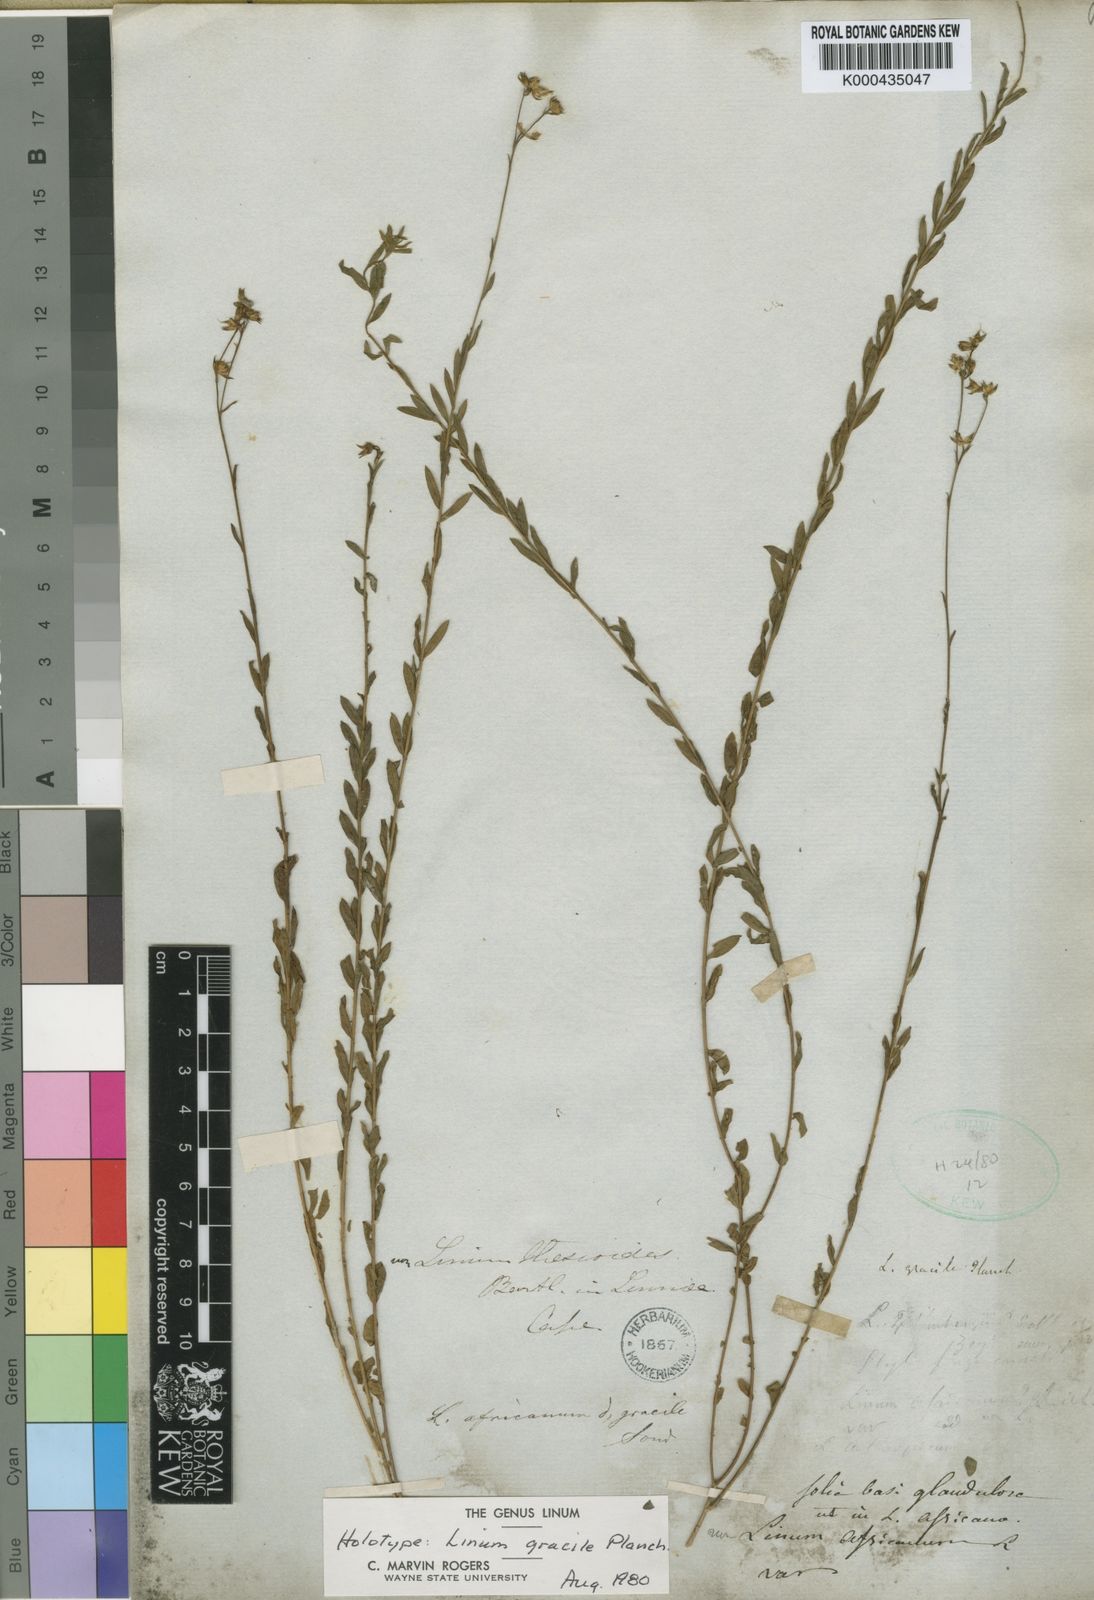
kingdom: Plantae
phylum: Tracheophyta
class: Magnoliopsida
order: Malpighiales
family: Linaceae
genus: Linum
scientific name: Linum gracile
